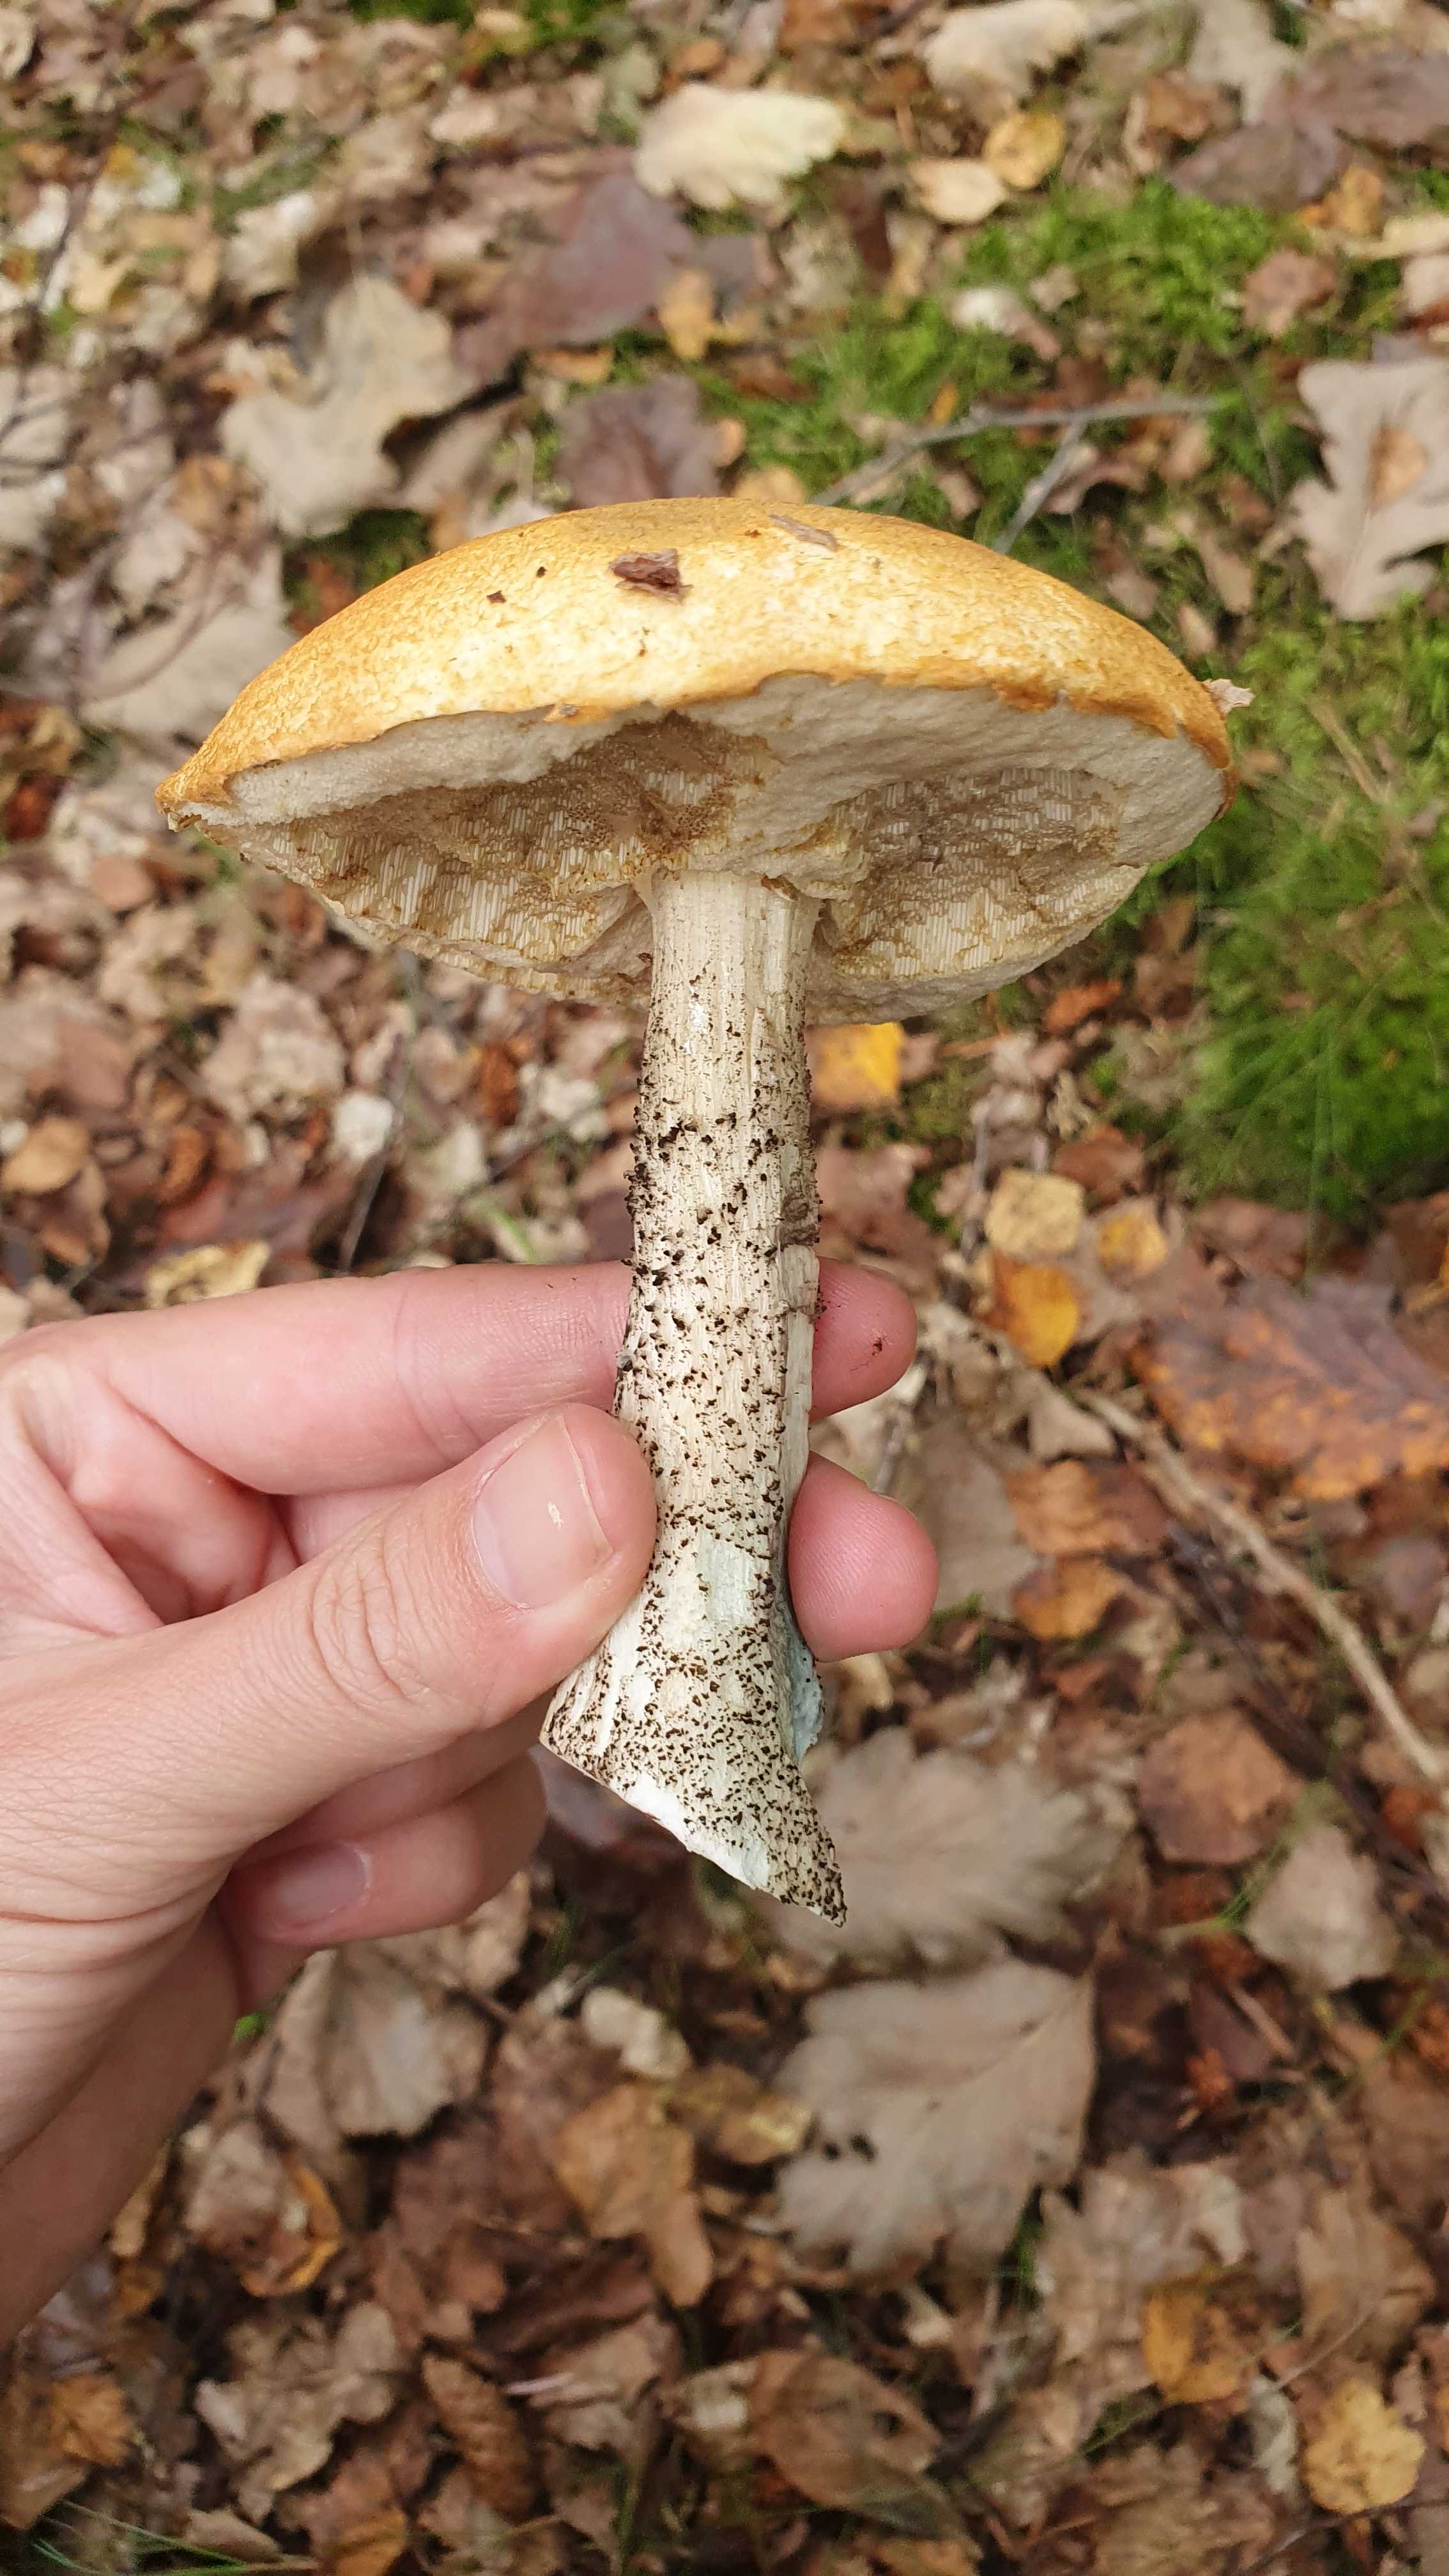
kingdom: Fungi
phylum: Basidiomycota
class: Agaricomycetes
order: Boletales
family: Boletaceae
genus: Leccinum
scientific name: Leccinum versipelle
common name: orange skælrørhat
